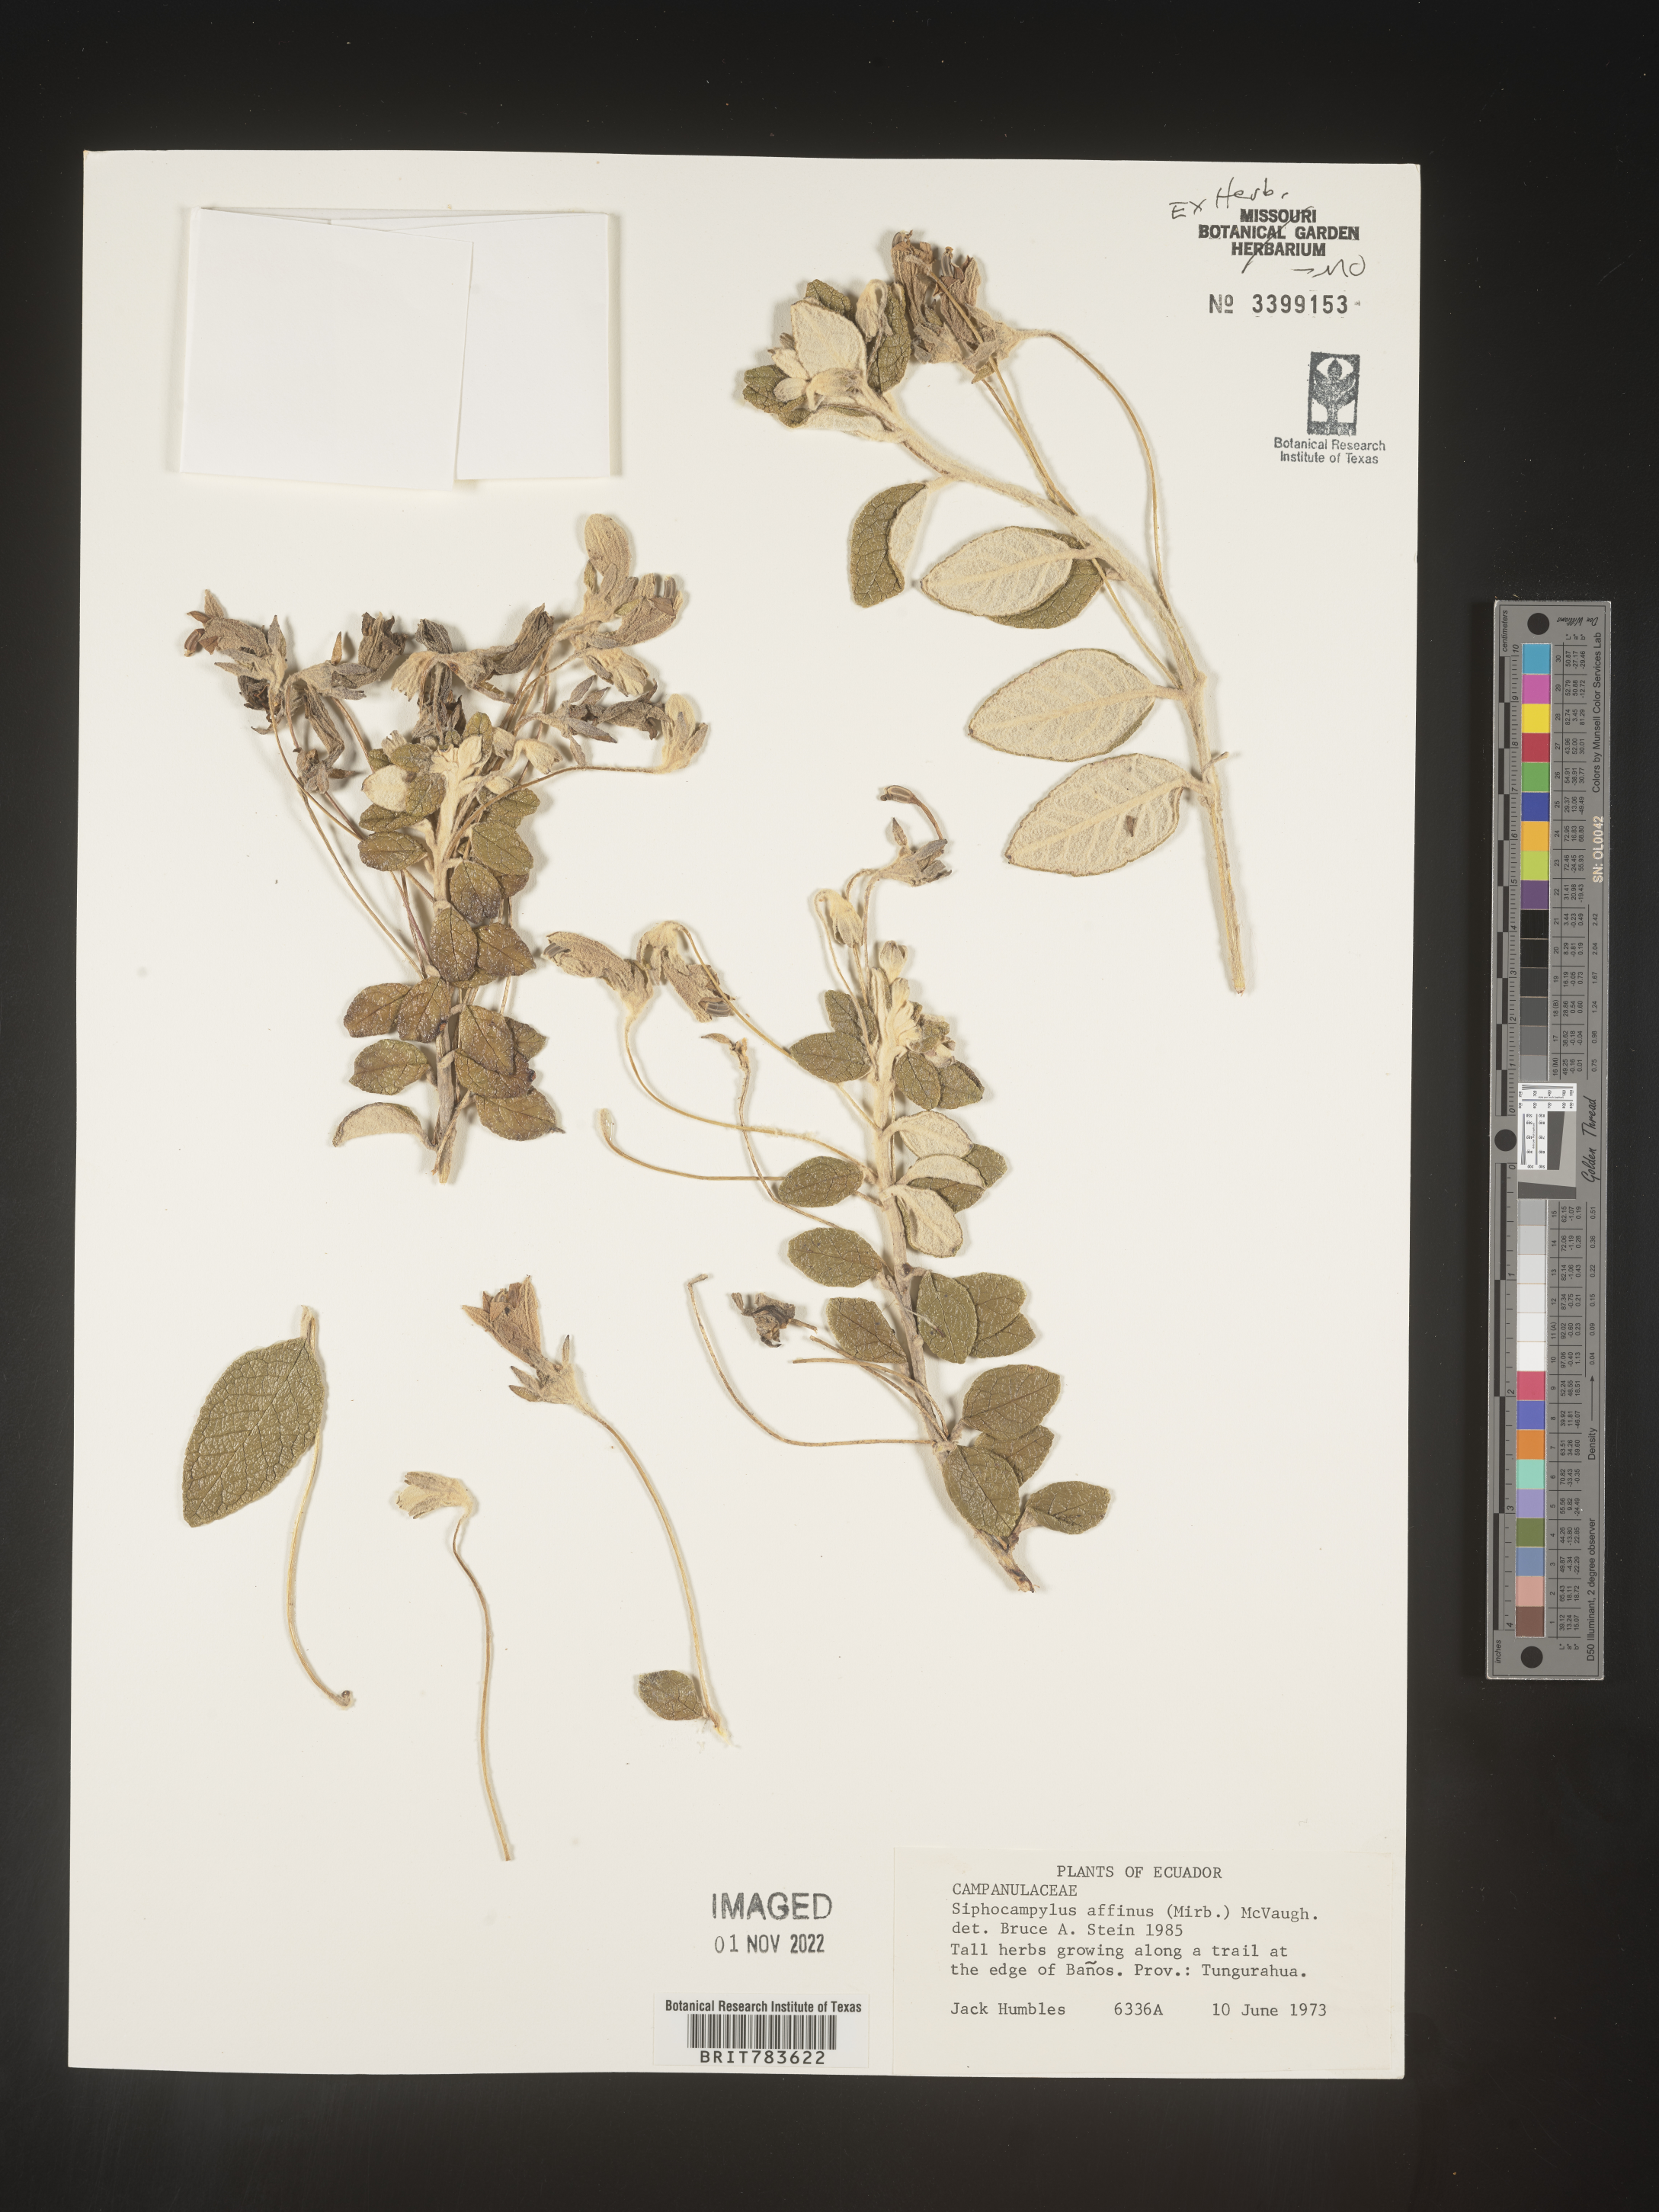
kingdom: Plantae
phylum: Tracheophyta
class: Magnoliopsida
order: Asterales
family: Campanulaceae
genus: Siphocampylus
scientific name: Siphocampylus
